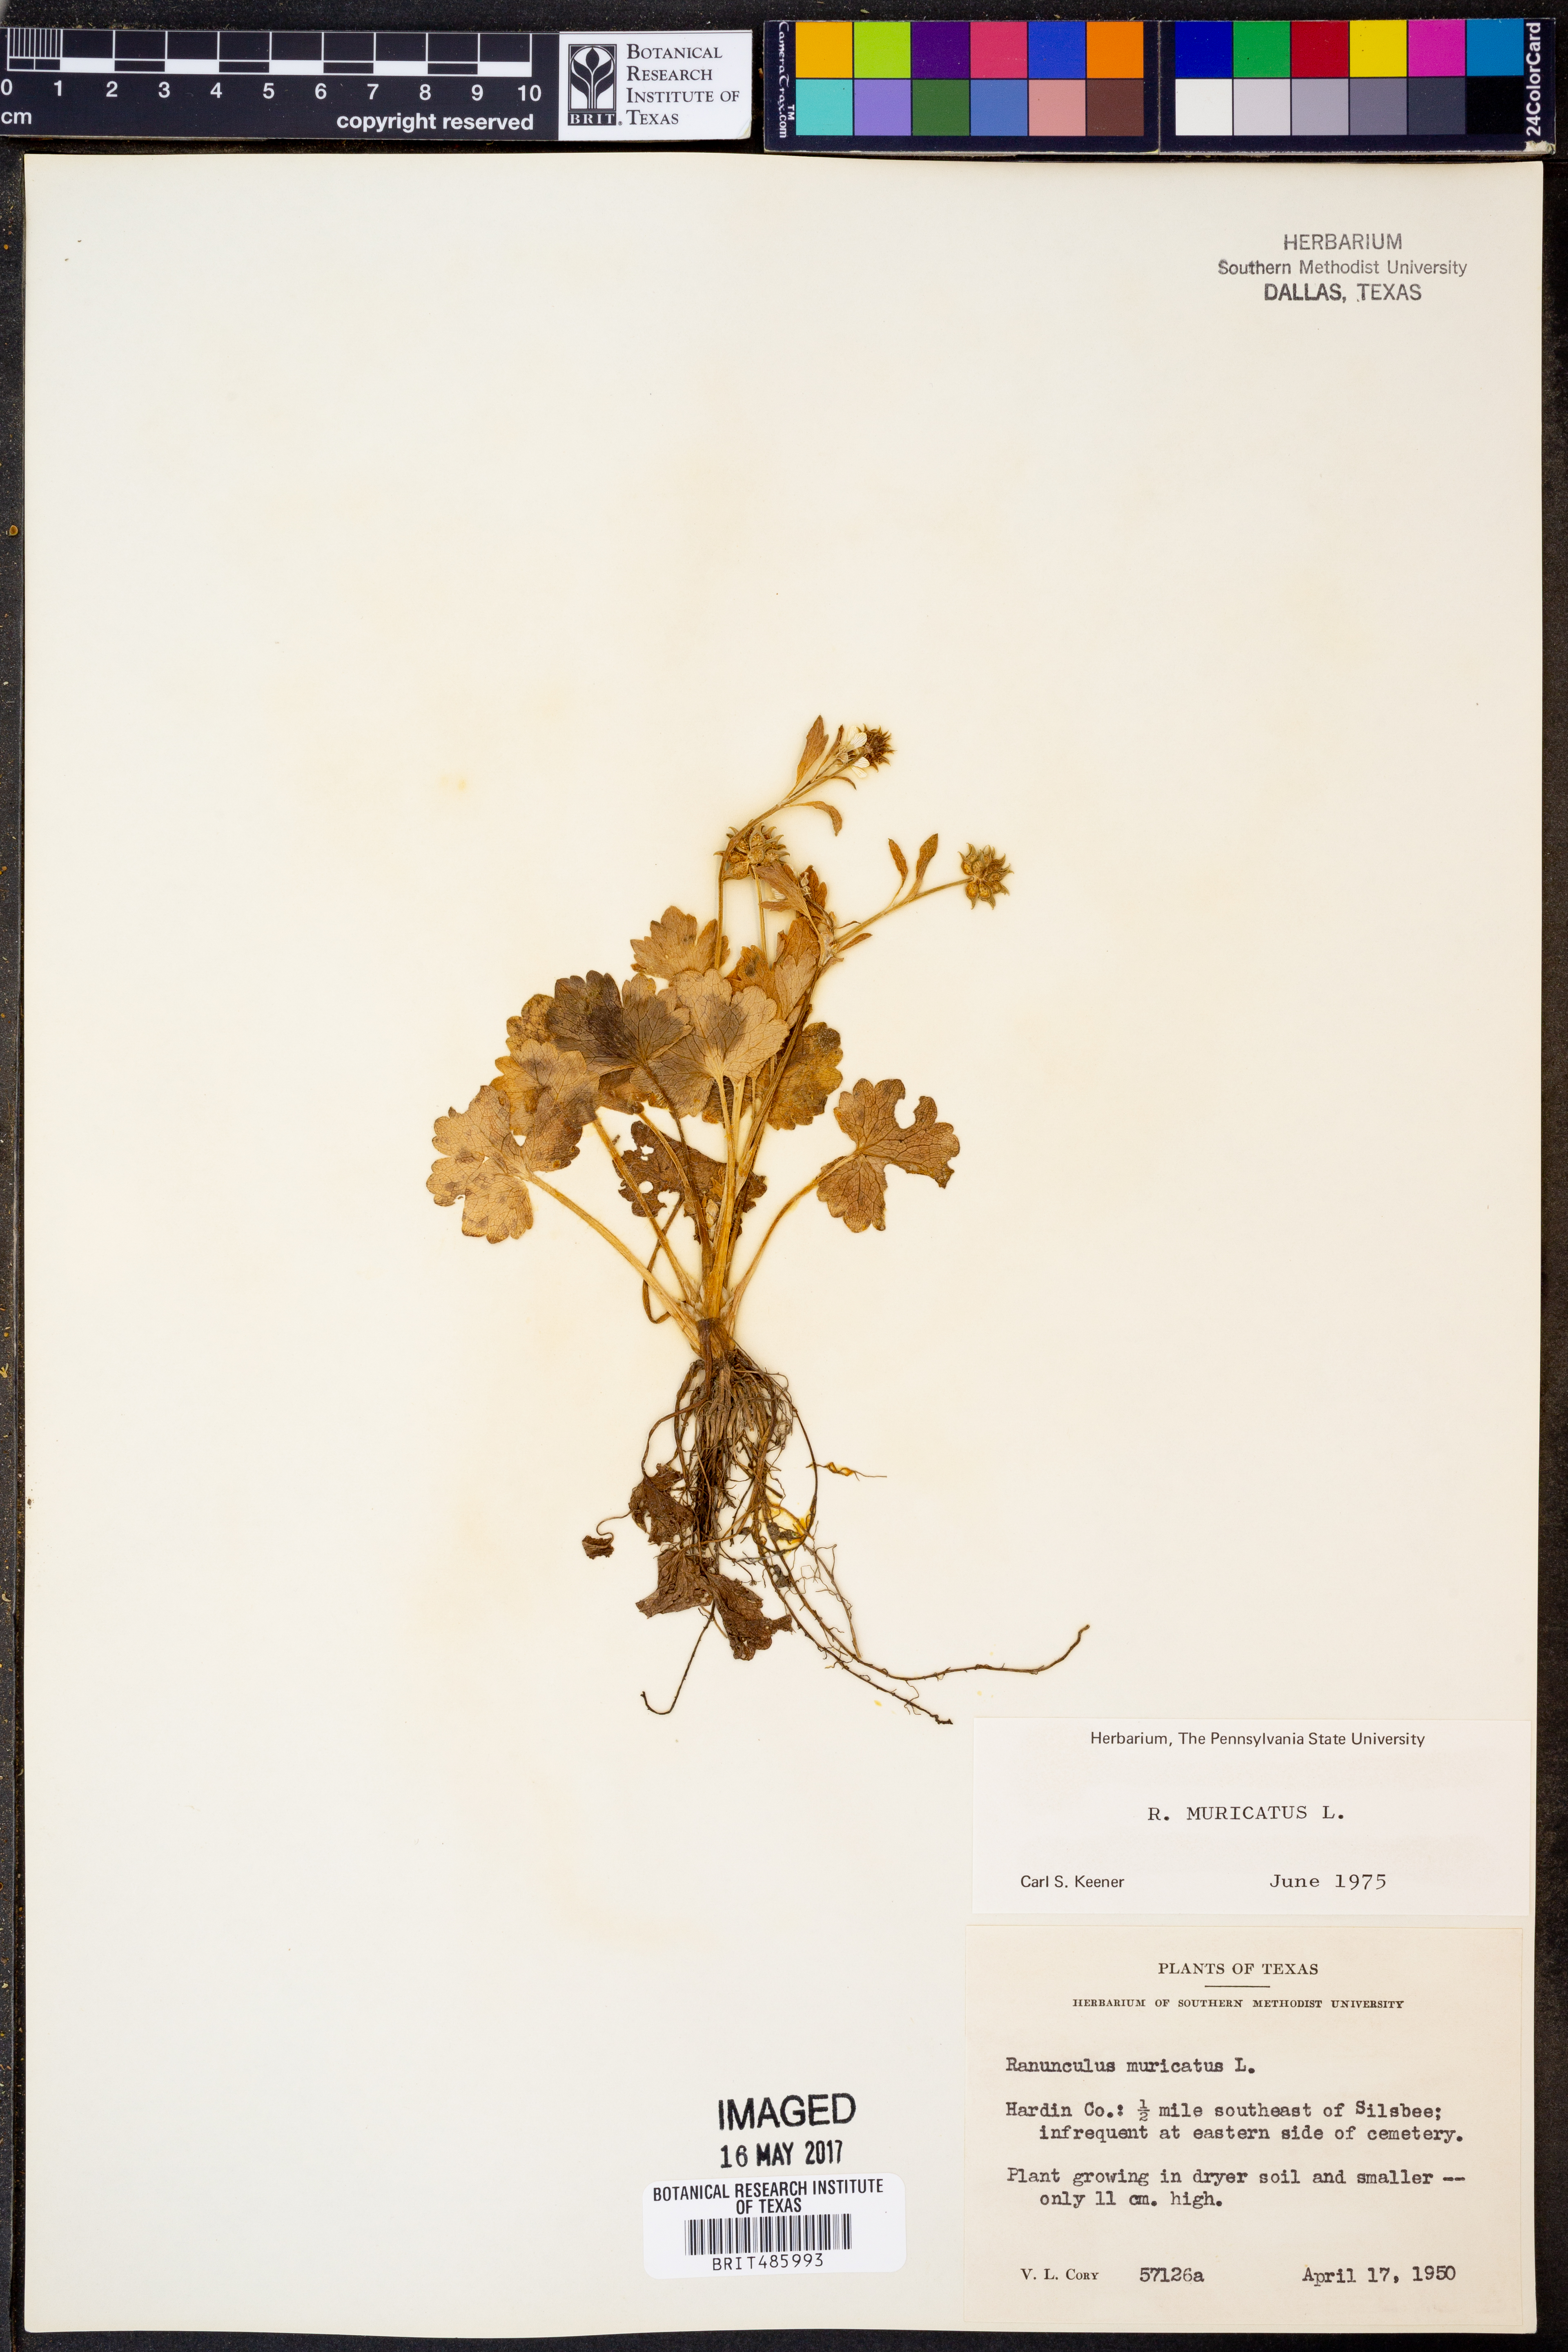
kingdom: Plantae
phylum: Tracheophyta
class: Magnoliopsida
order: Ranunculales
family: Ranunculaceae
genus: Ranunculus
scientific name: Ranunculus muricatus
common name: Rough-fruited buttercup
